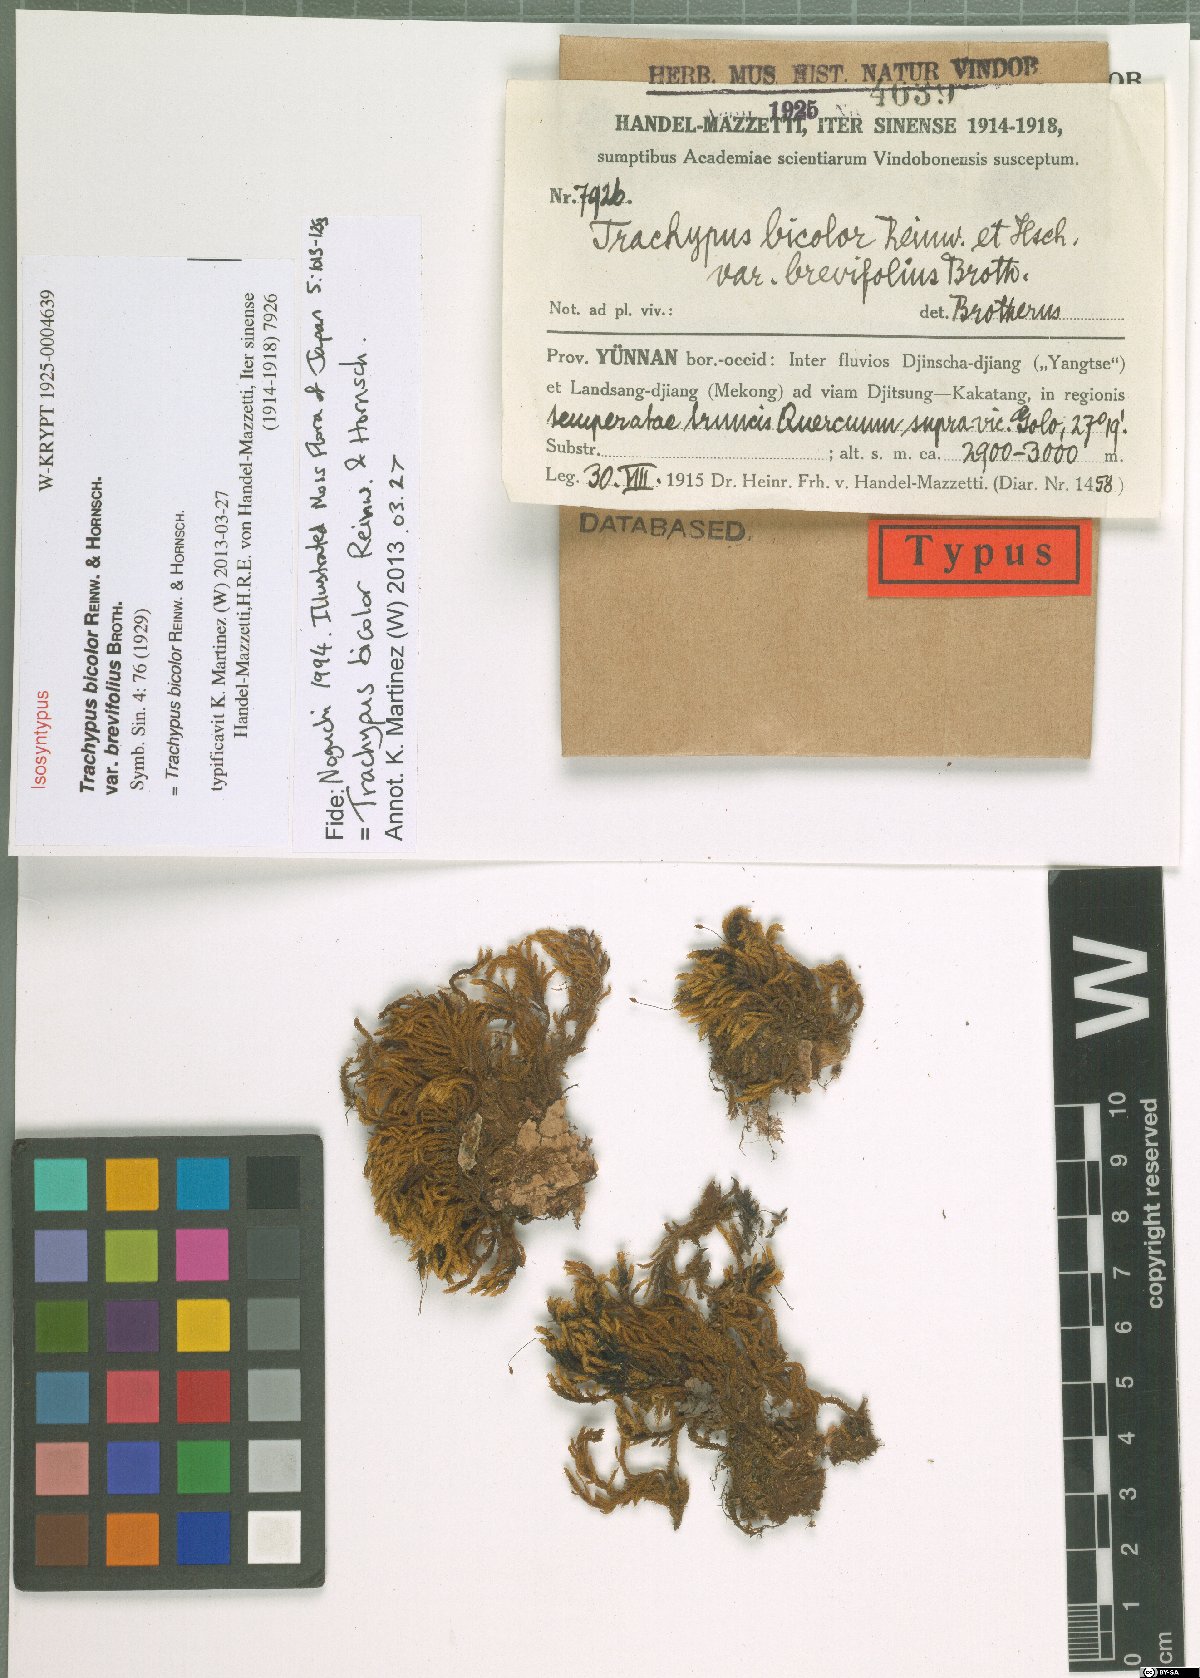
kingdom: Plantae
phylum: Bryophyta
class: Bryopsida
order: Hypnales
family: Meteoriaceae
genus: Trachypus
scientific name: Trachypus bicolor
